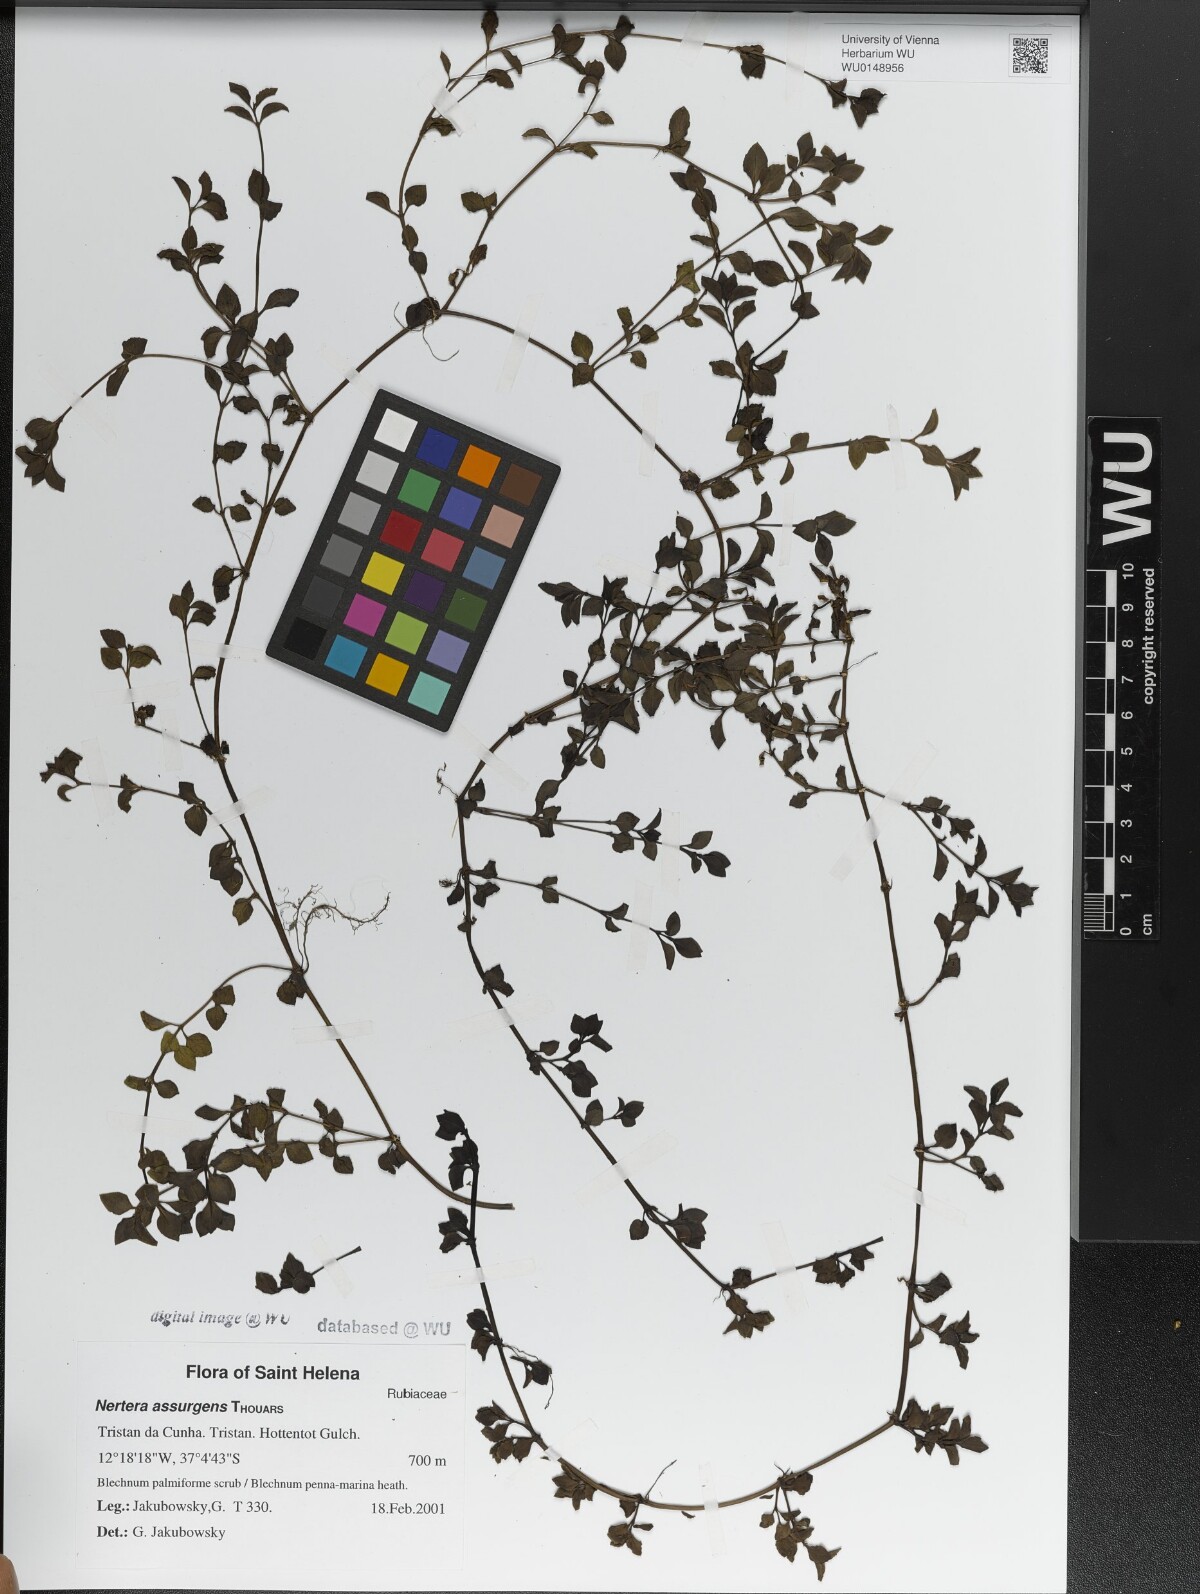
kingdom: Plantae
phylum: Tracheophyta
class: Magnoliopsida
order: Gentianales
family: Rubiaceae
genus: Nertera
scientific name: Nertera granadensis
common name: Beadplant
